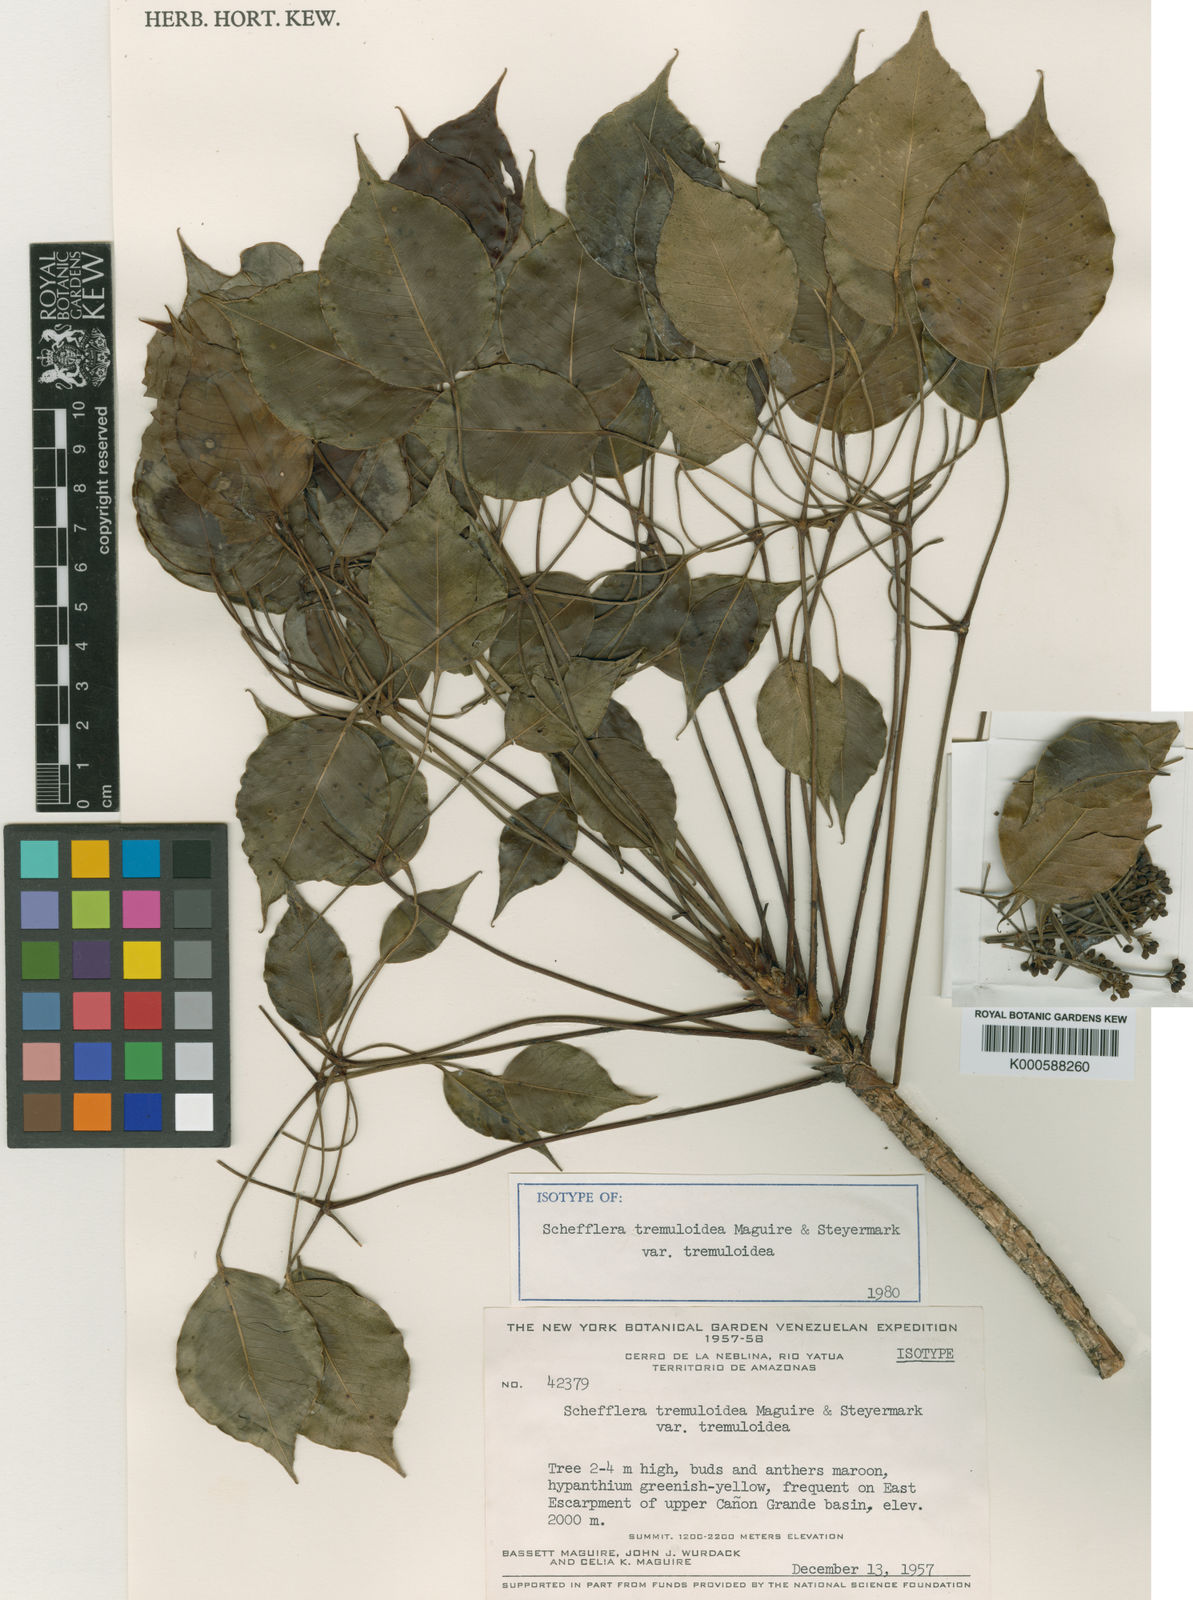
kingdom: Plantae
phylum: Tracheophyta
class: Magnoliopsida
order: Apiales
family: Araliaceae
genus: Sciodaphyllum
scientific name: Sciodaphyllum tremuloideum
